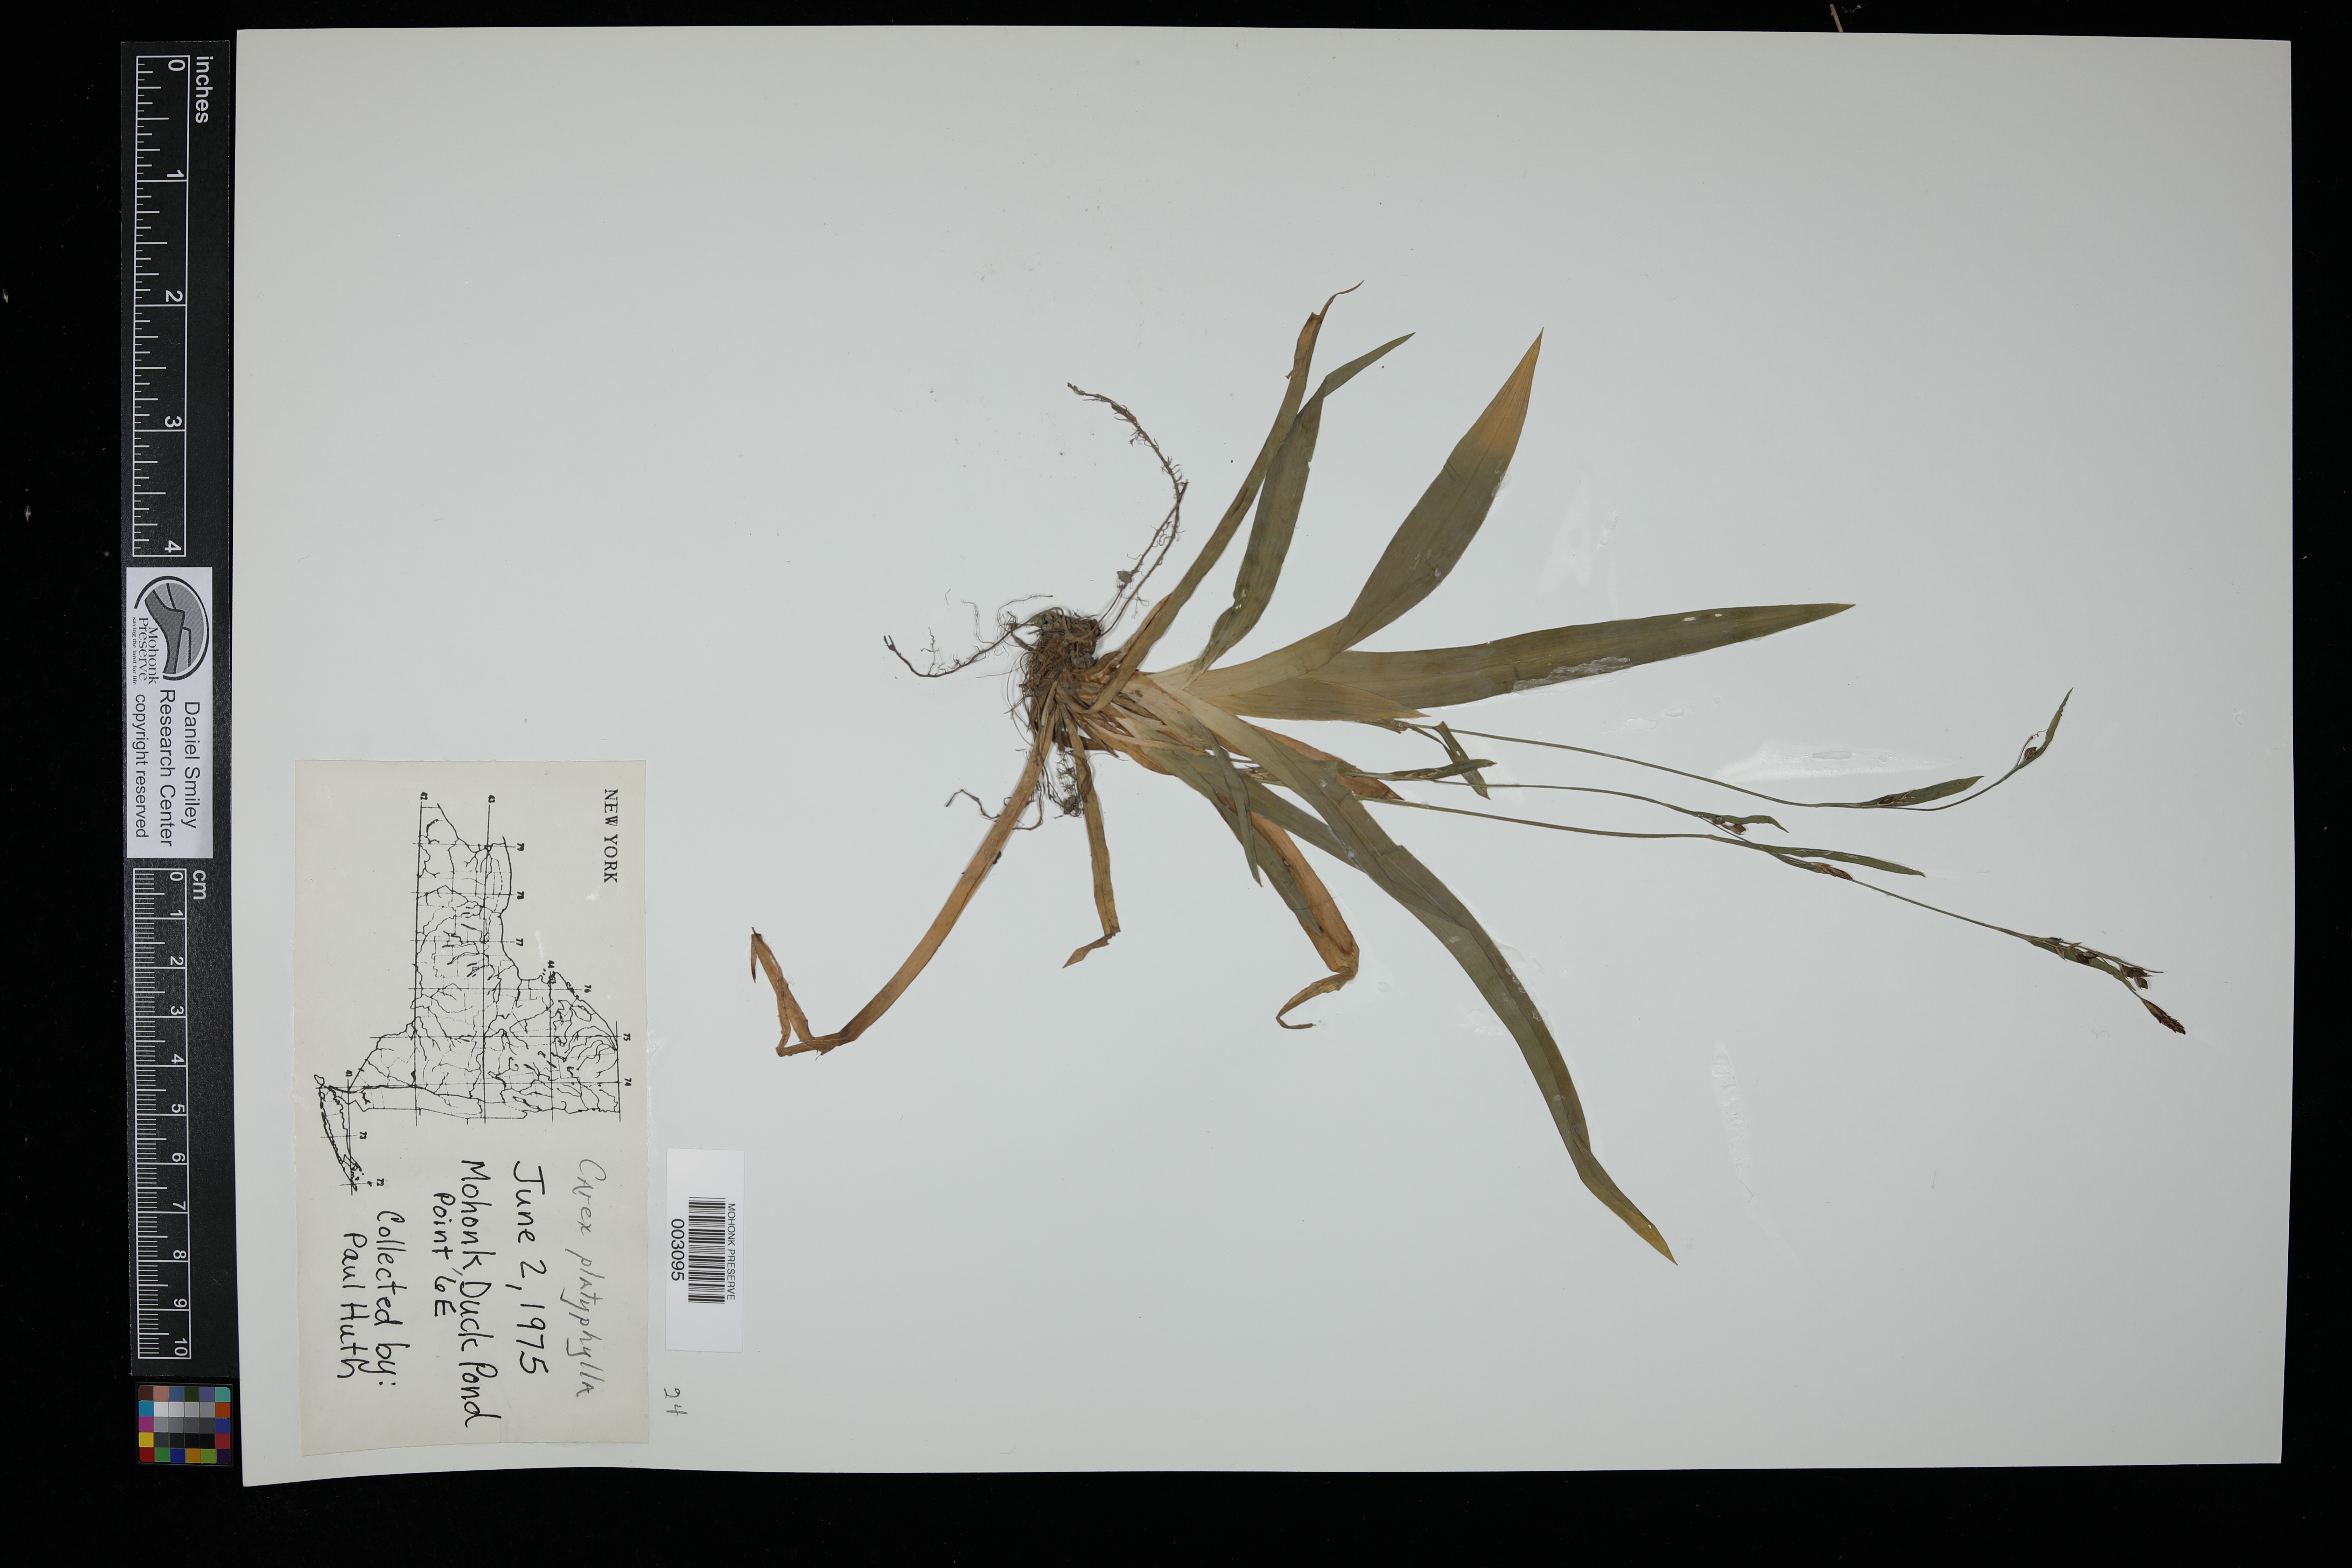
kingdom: Plantae
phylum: Tracheophyta
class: Liliopsida
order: Poales
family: Cyperaceae
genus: Carex
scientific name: Carex platyphylla
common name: Broad-leaved sedge
